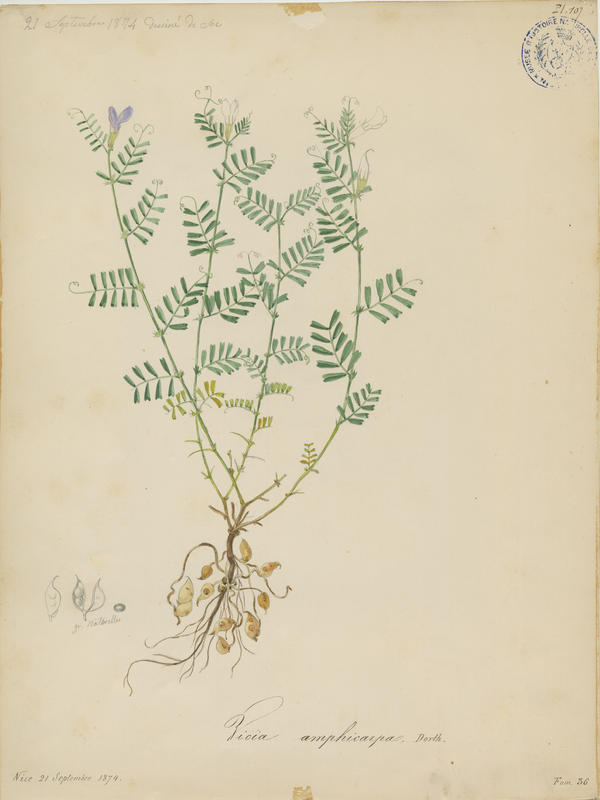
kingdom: Plantae
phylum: Tracheophyta
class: Magnoliopsida
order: Fabales
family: Fabaceae
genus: Vicia
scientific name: Vicia sativa
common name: Garden vetch
